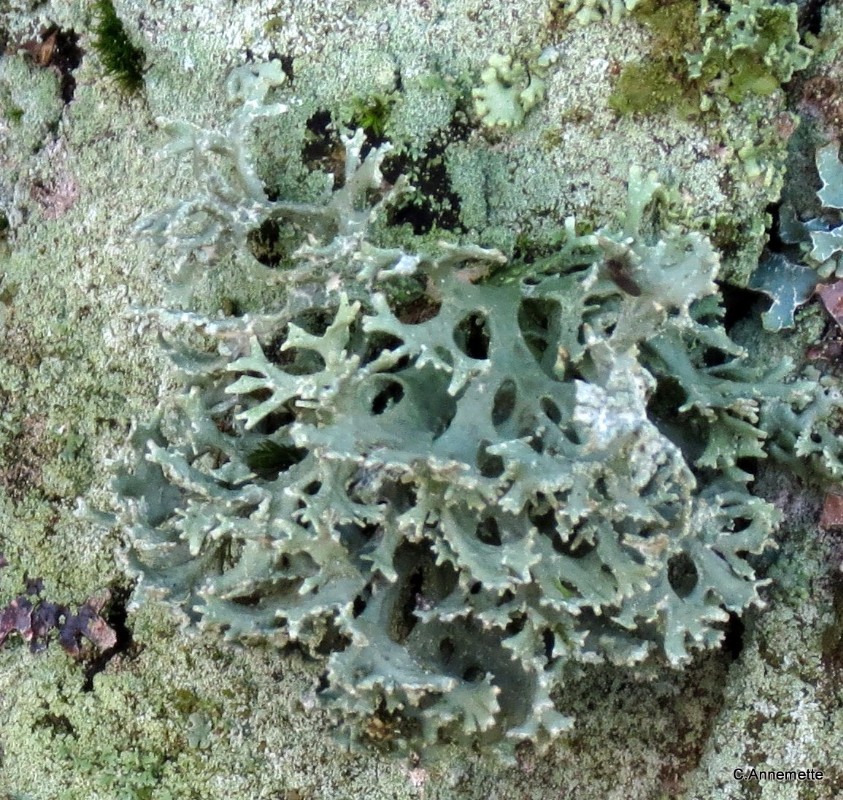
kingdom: Fungi
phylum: Ascomycota
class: Lecanoromycetes
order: Lecanorales
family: Parmeliaceae
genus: Evernia
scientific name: Evernia prunastri
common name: almindelig slåenlav
